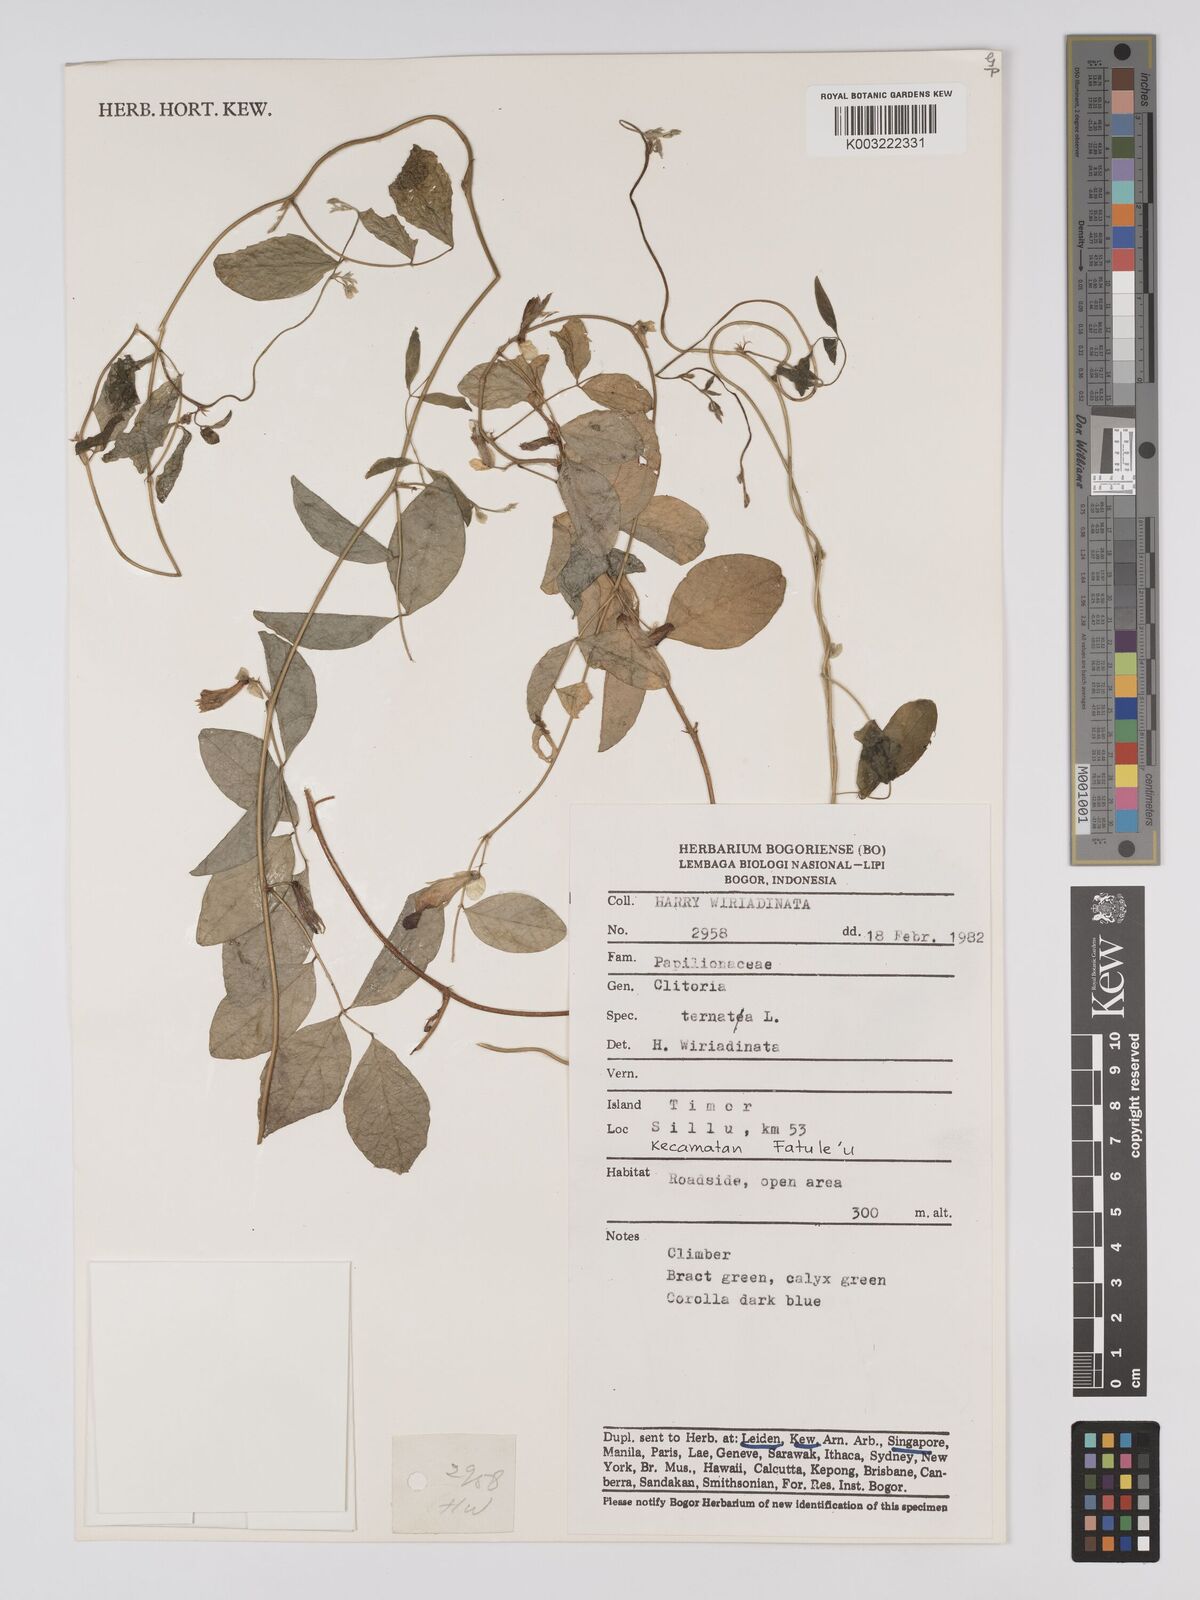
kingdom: Plantae
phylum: Tracheophyta
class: Magnoliopsida
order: Fabales
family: Fabaceae
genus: Clitoria
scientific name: Clitoria ternatea
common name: Asian pigeonwings
